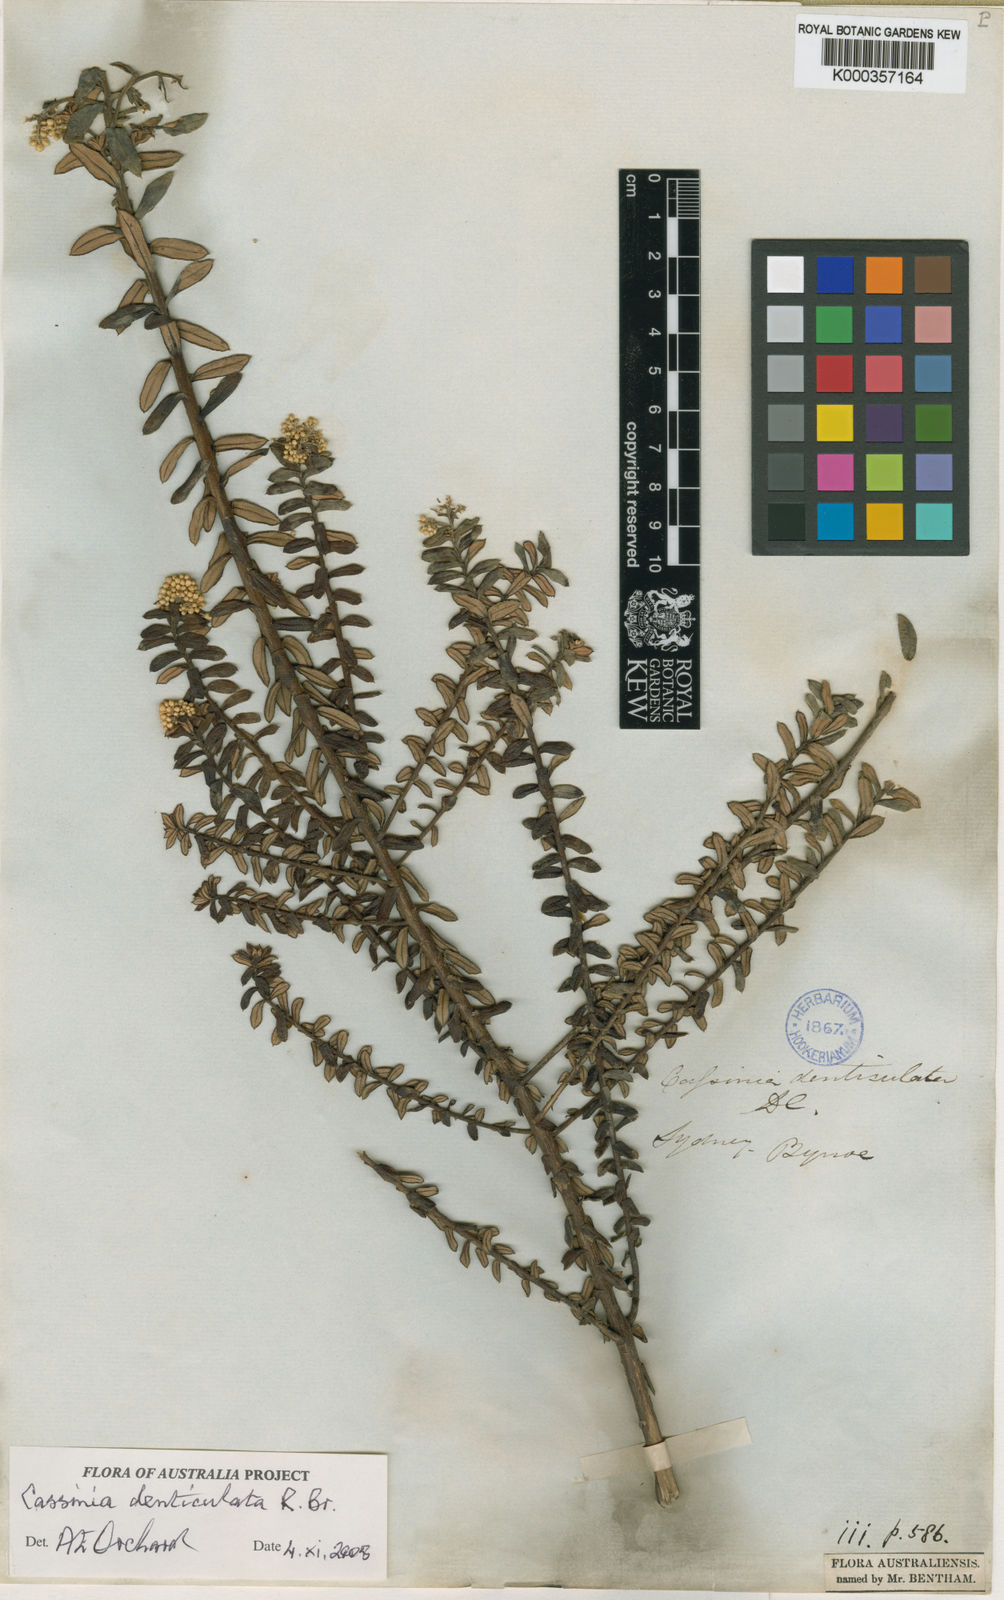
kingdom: Plantae
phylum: Tracheophyta
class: Magnoliopsida
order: Asterales
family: Asteraceae
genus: Cassinia
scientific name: Cassinia denticulata
